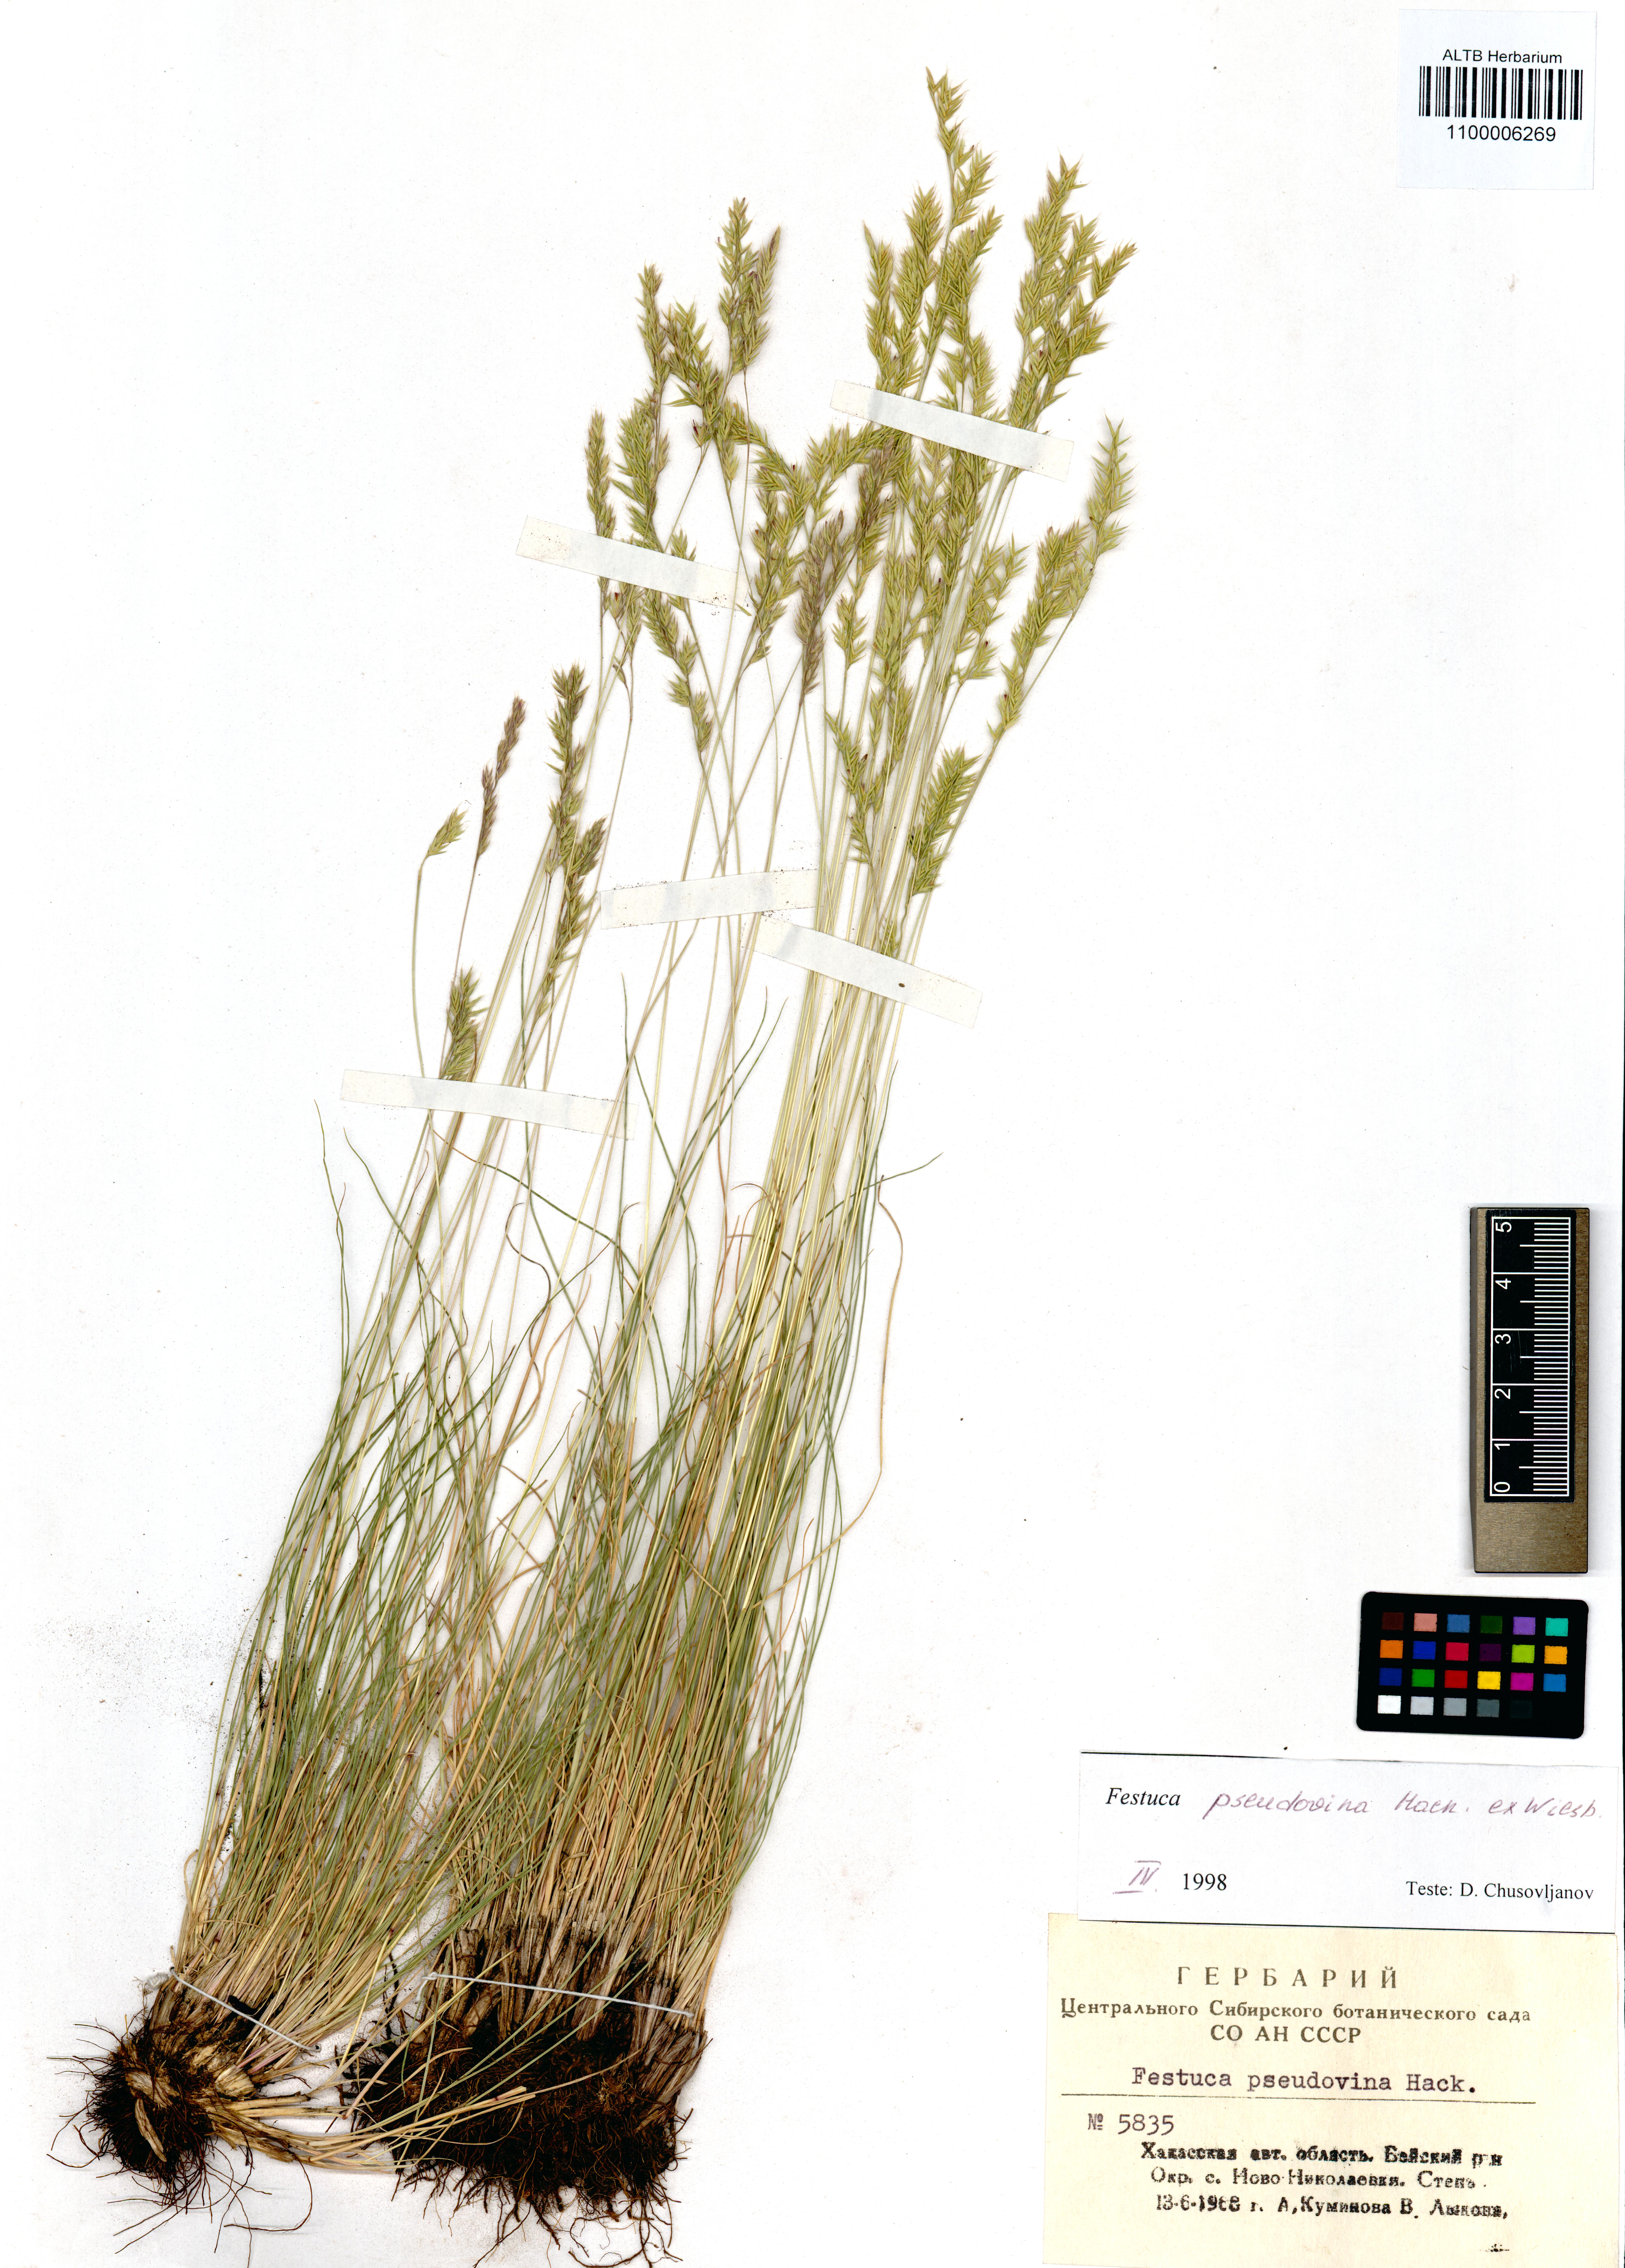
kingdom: Plantae
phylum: Tracheophyta
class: Liliopsida
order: Poales
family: Poaceae
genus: Festuca
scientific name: Festuca pulchra
